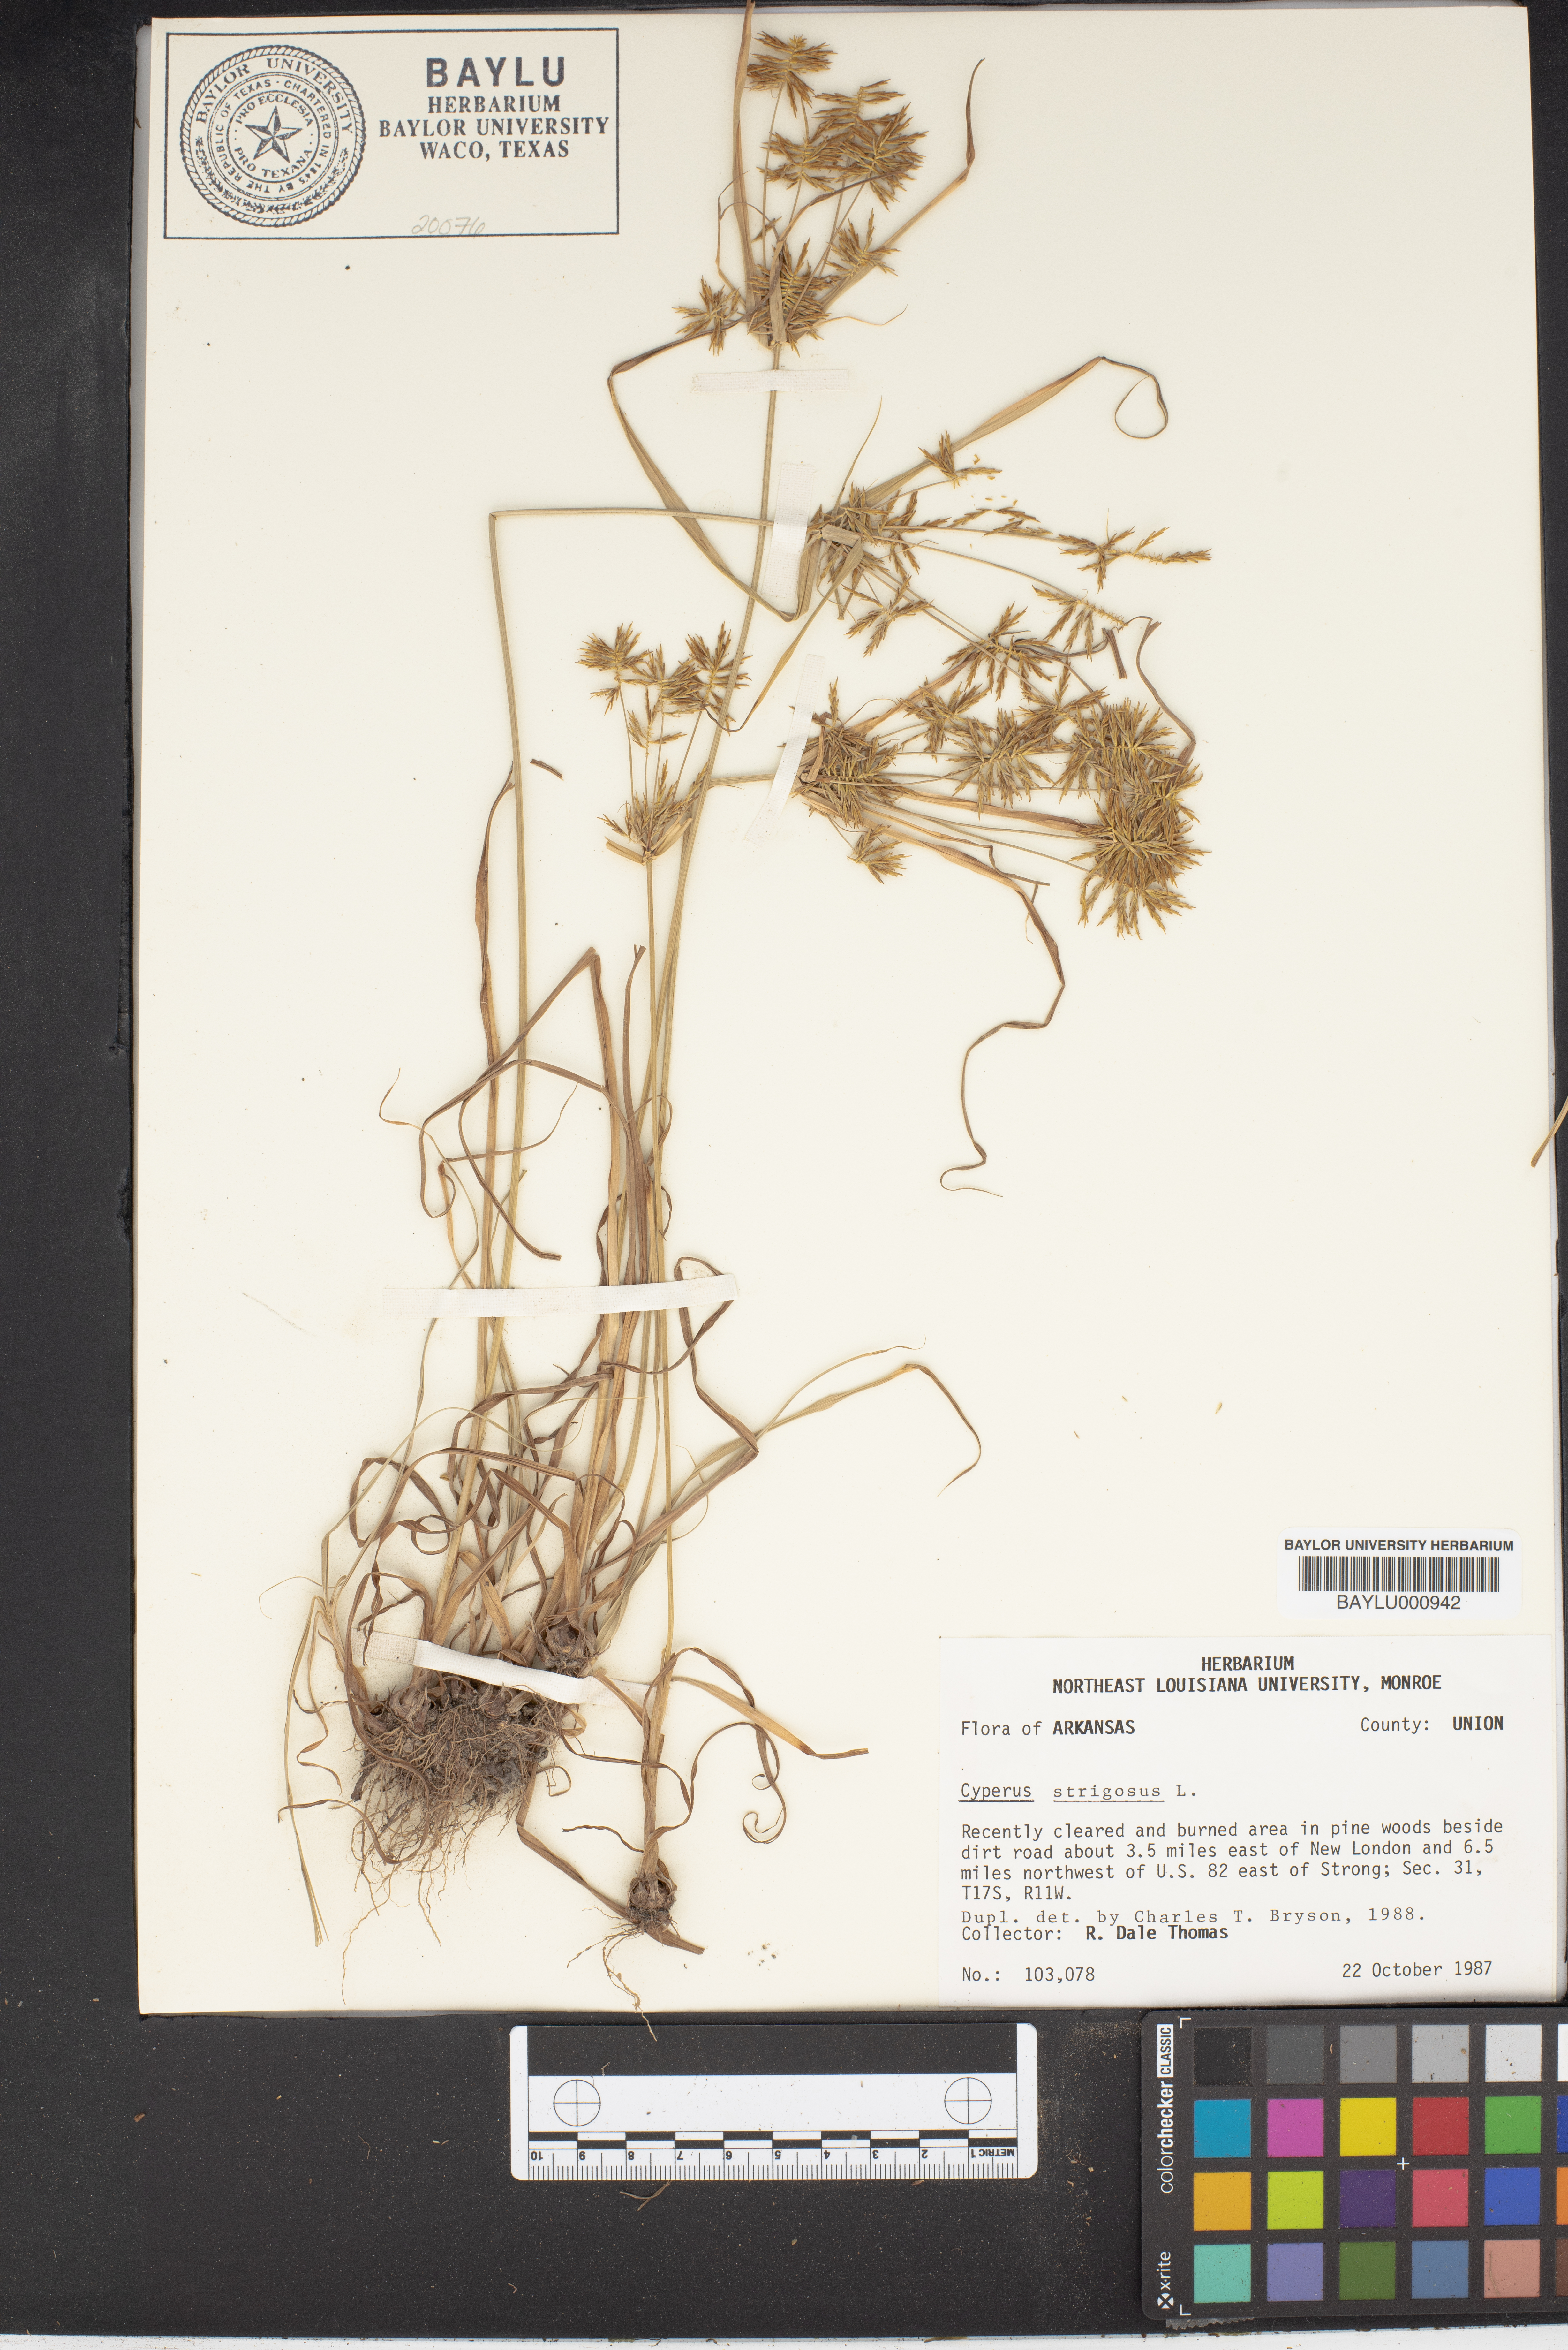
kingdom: Plantae
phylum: Tracheophyta
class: Liliopsida
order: Poales
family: Cyperaceae
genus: Cyperus
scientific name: Cyperus strigosus
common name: False nutsedge
